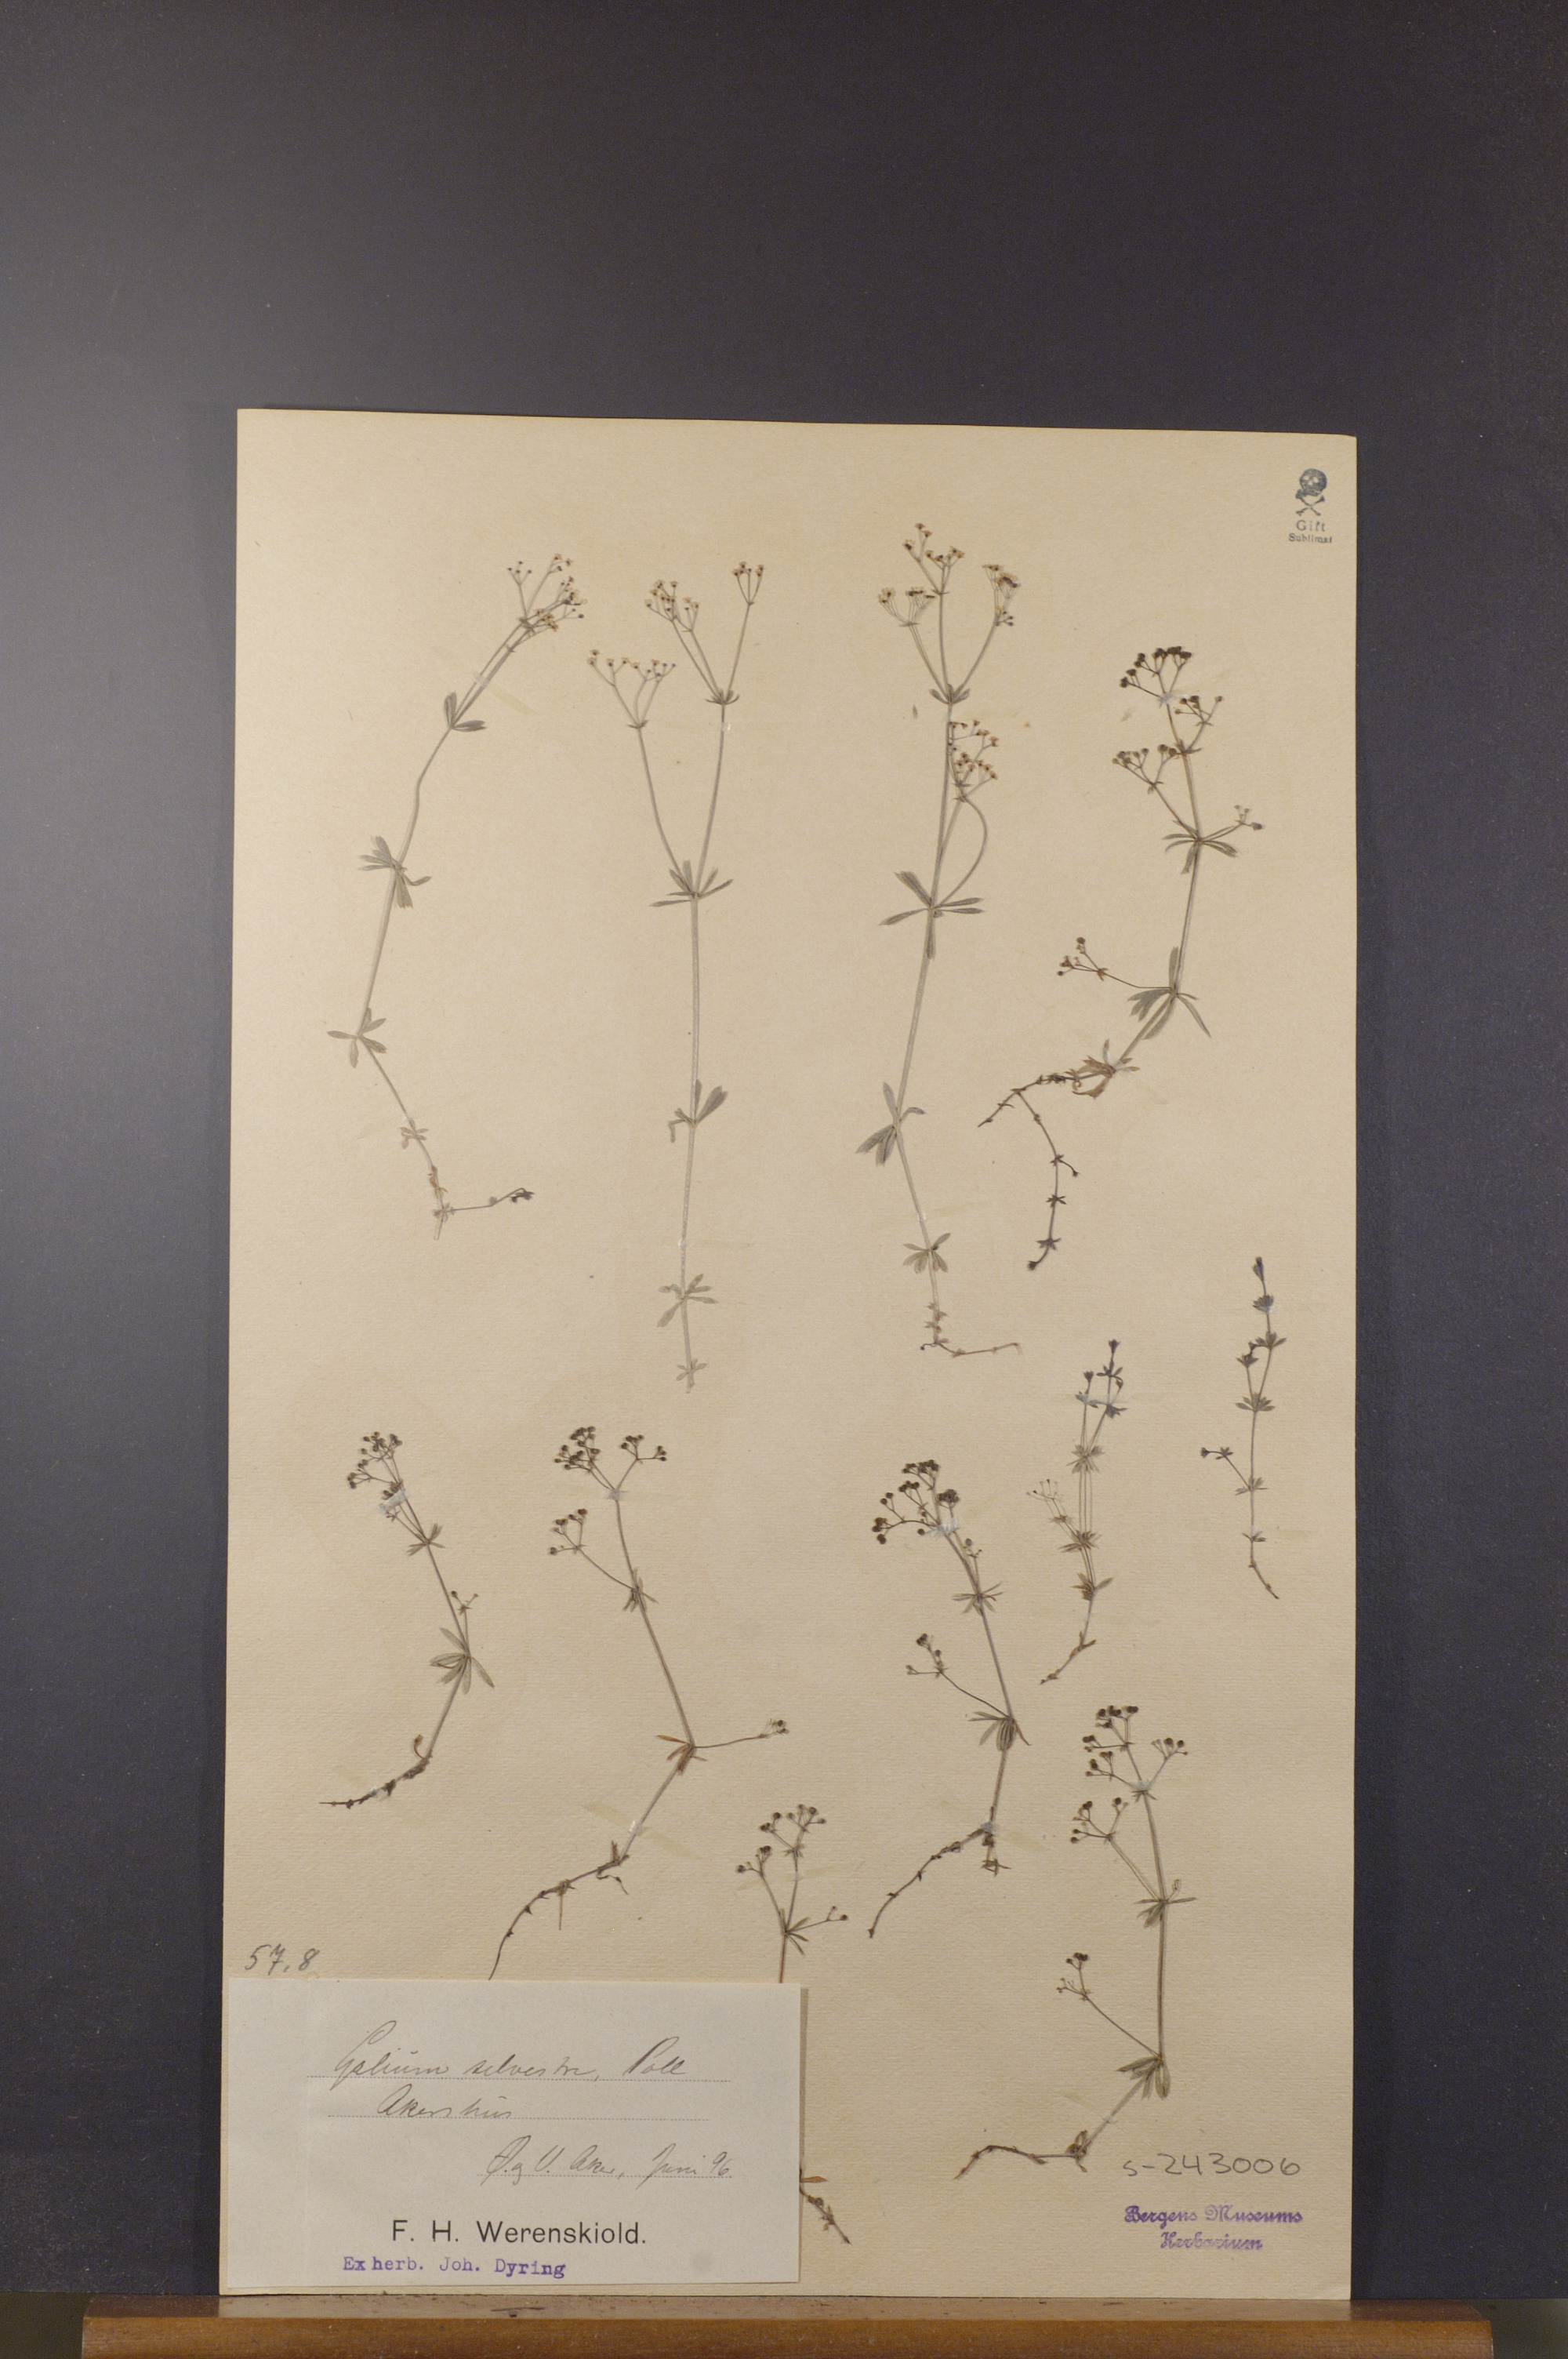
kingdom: Plantae
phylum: Tracheophyta
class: Magnoliopsida
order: Gentianales
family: Rubiaceae
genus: Galium
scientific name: Galium pumilum
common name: Slender bedstraw
